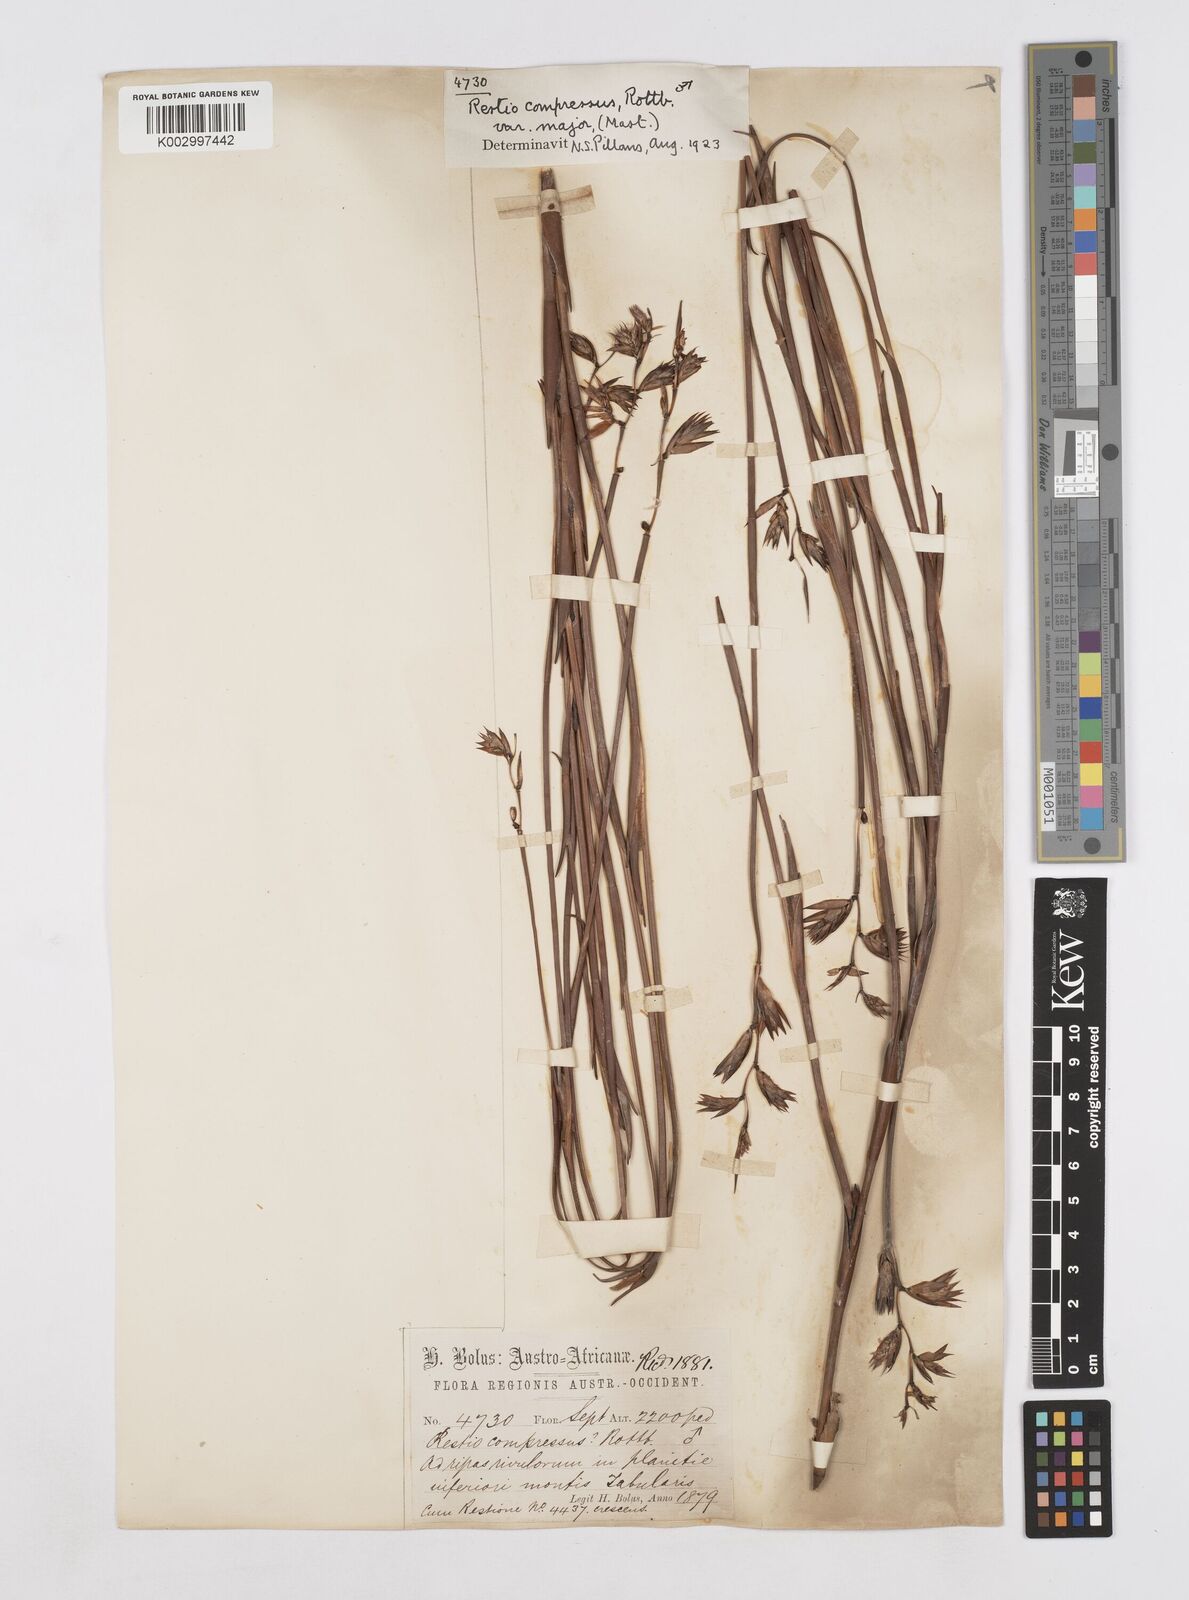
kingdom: Plantae
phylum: Tracheophyta
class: Liliopsida
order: Poales
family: Restionaceae
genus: Platycaulos
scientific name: Platycaulos major
